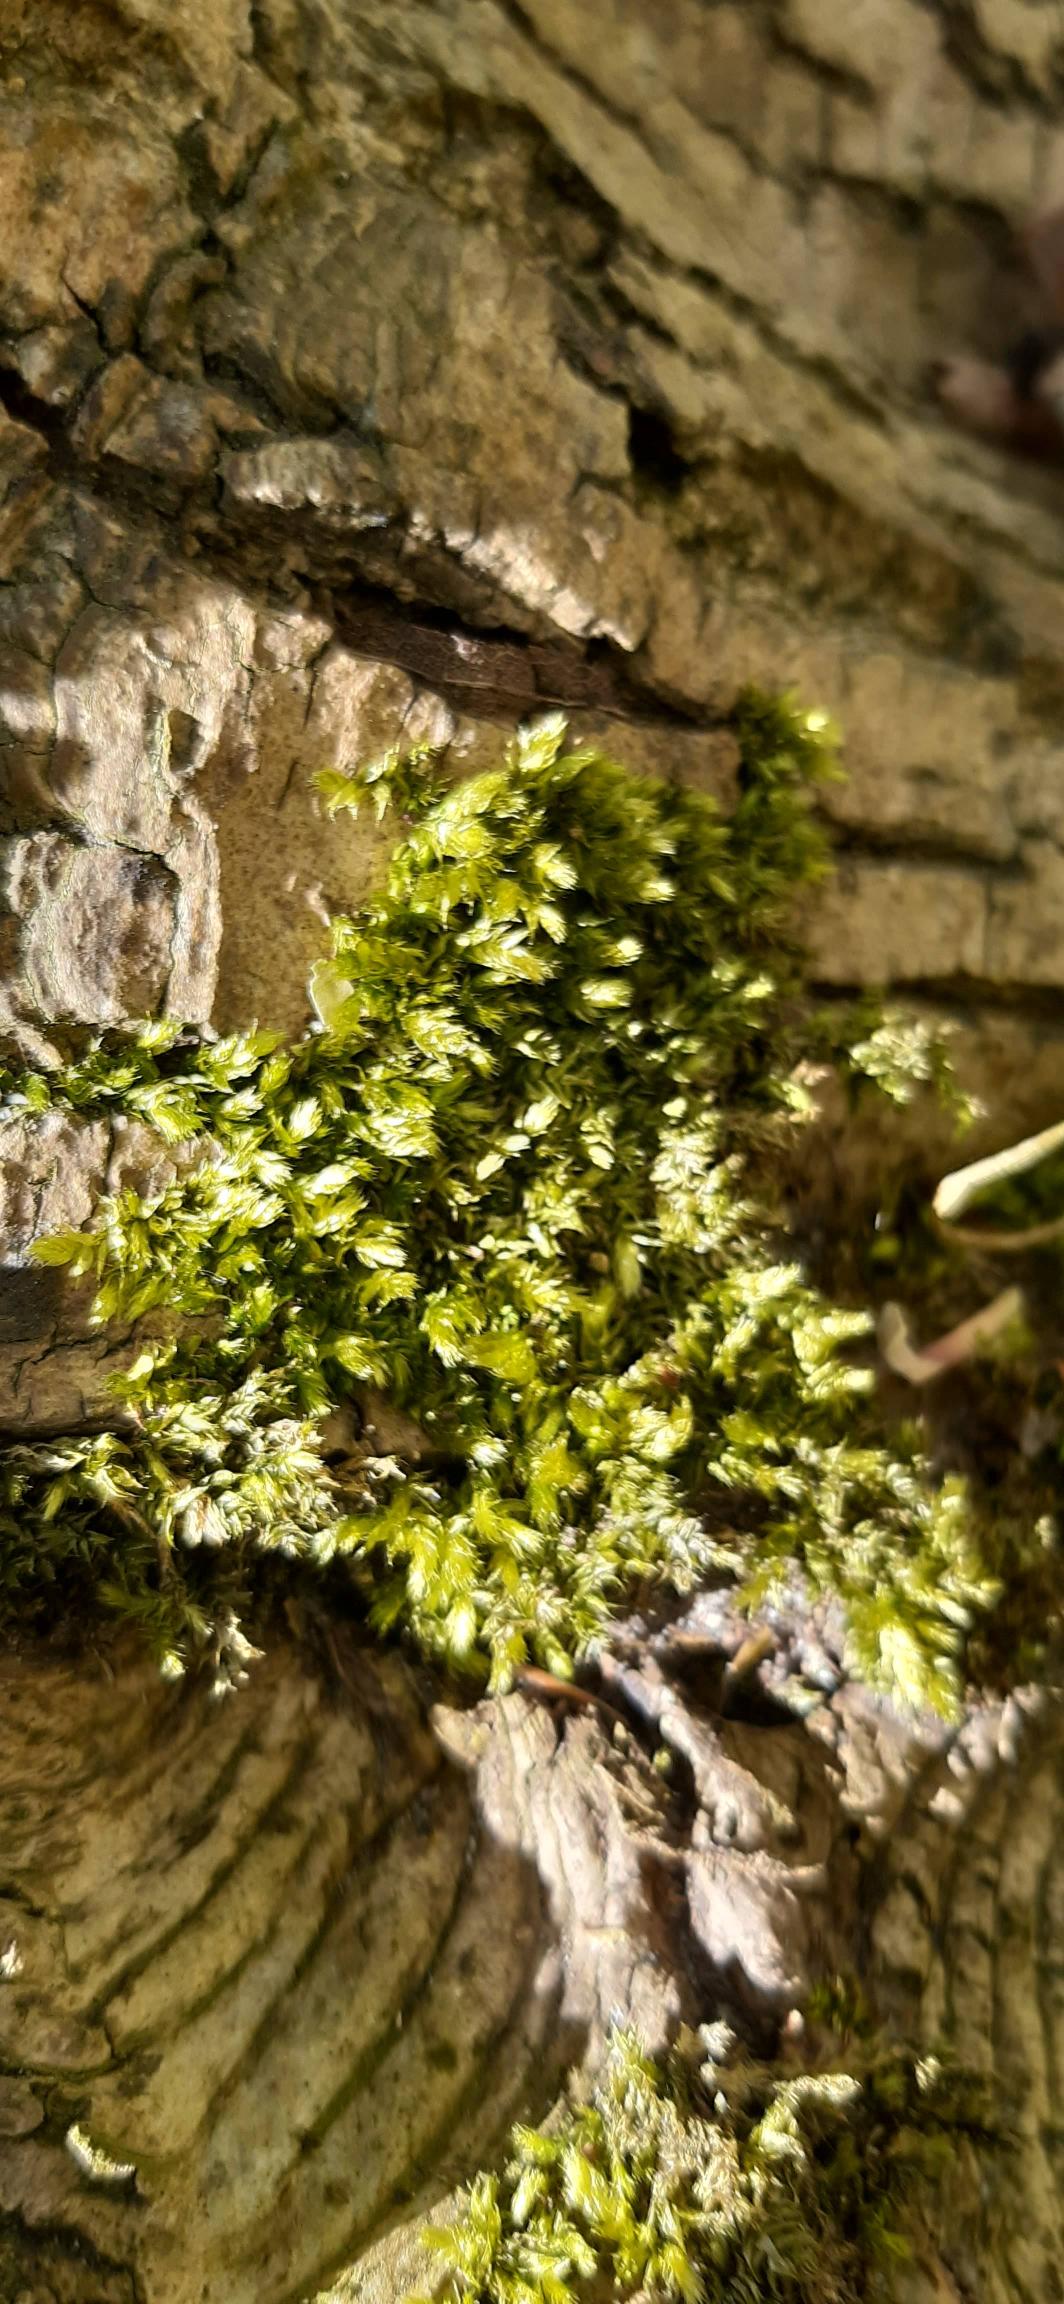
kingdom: Plantae
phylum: Bryophyta
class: Bryopsida
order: Hypnales
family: Brachytheciaceae
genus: Brachythecium
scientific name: Brachythecium rutabulum
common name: Almindelig kortkapsel
